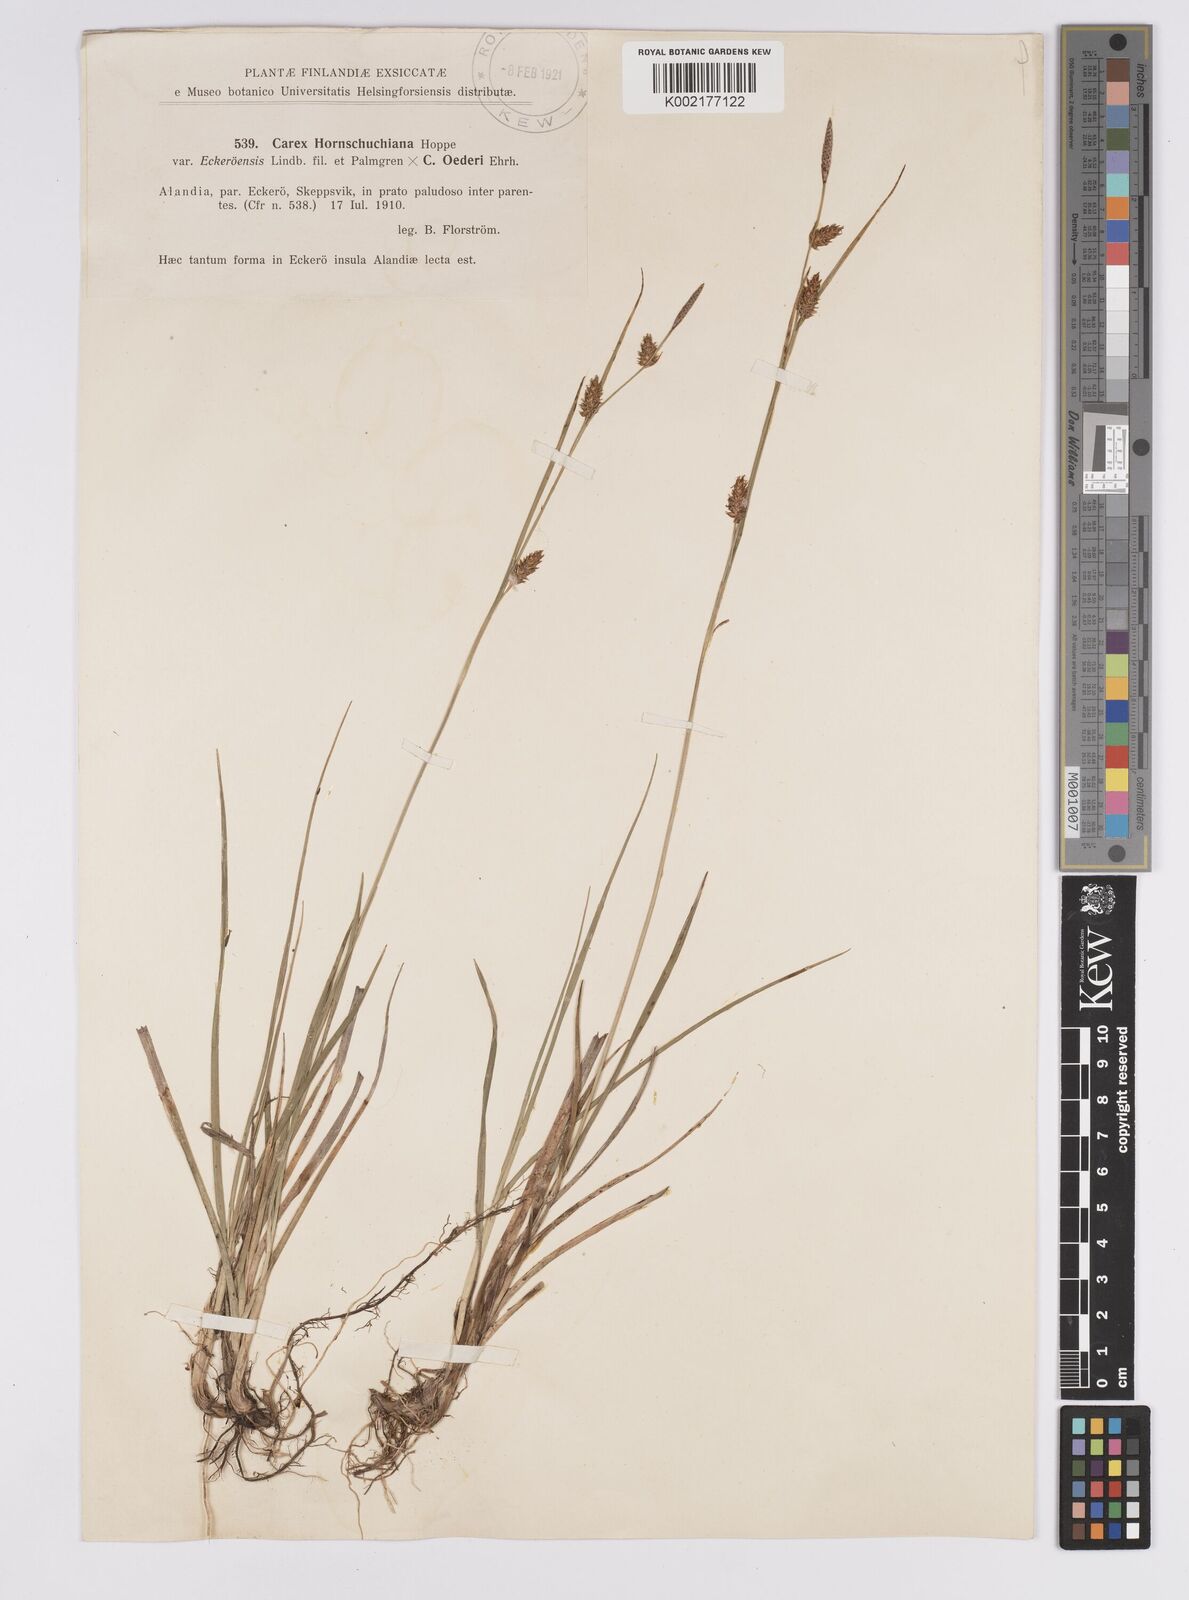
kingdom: Plantae
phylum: Tracheophyta
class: Liliopsida
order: Poales
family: Cyperaceae
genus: Carex
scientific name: Carex hostiana
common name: Tawny sedge
